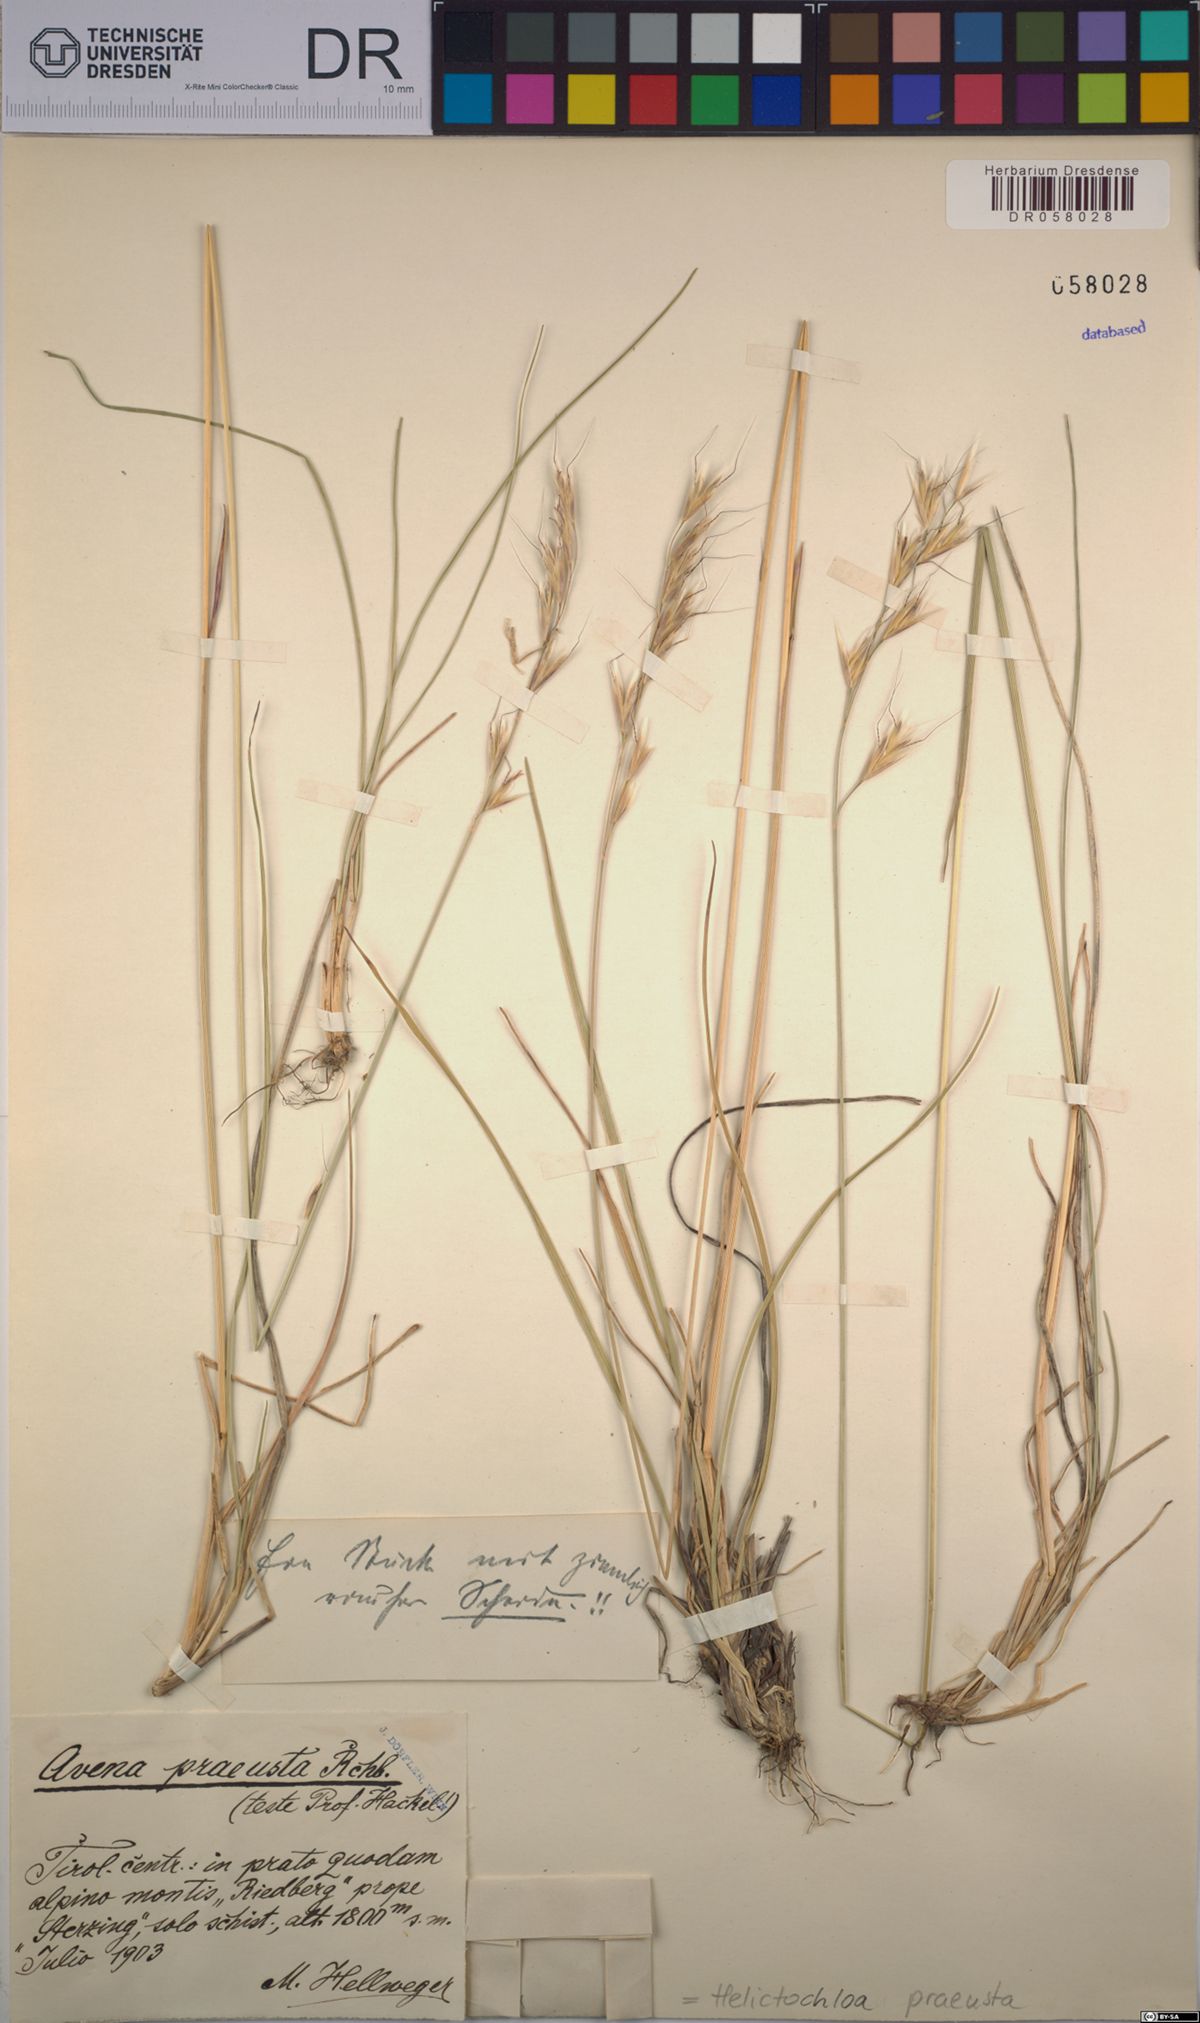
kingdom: Plantae
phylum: Tracheophyta
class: Liliopsida
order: Poales
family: Poaceae
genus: Helictochloa
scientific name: Helictochloa praeusta
